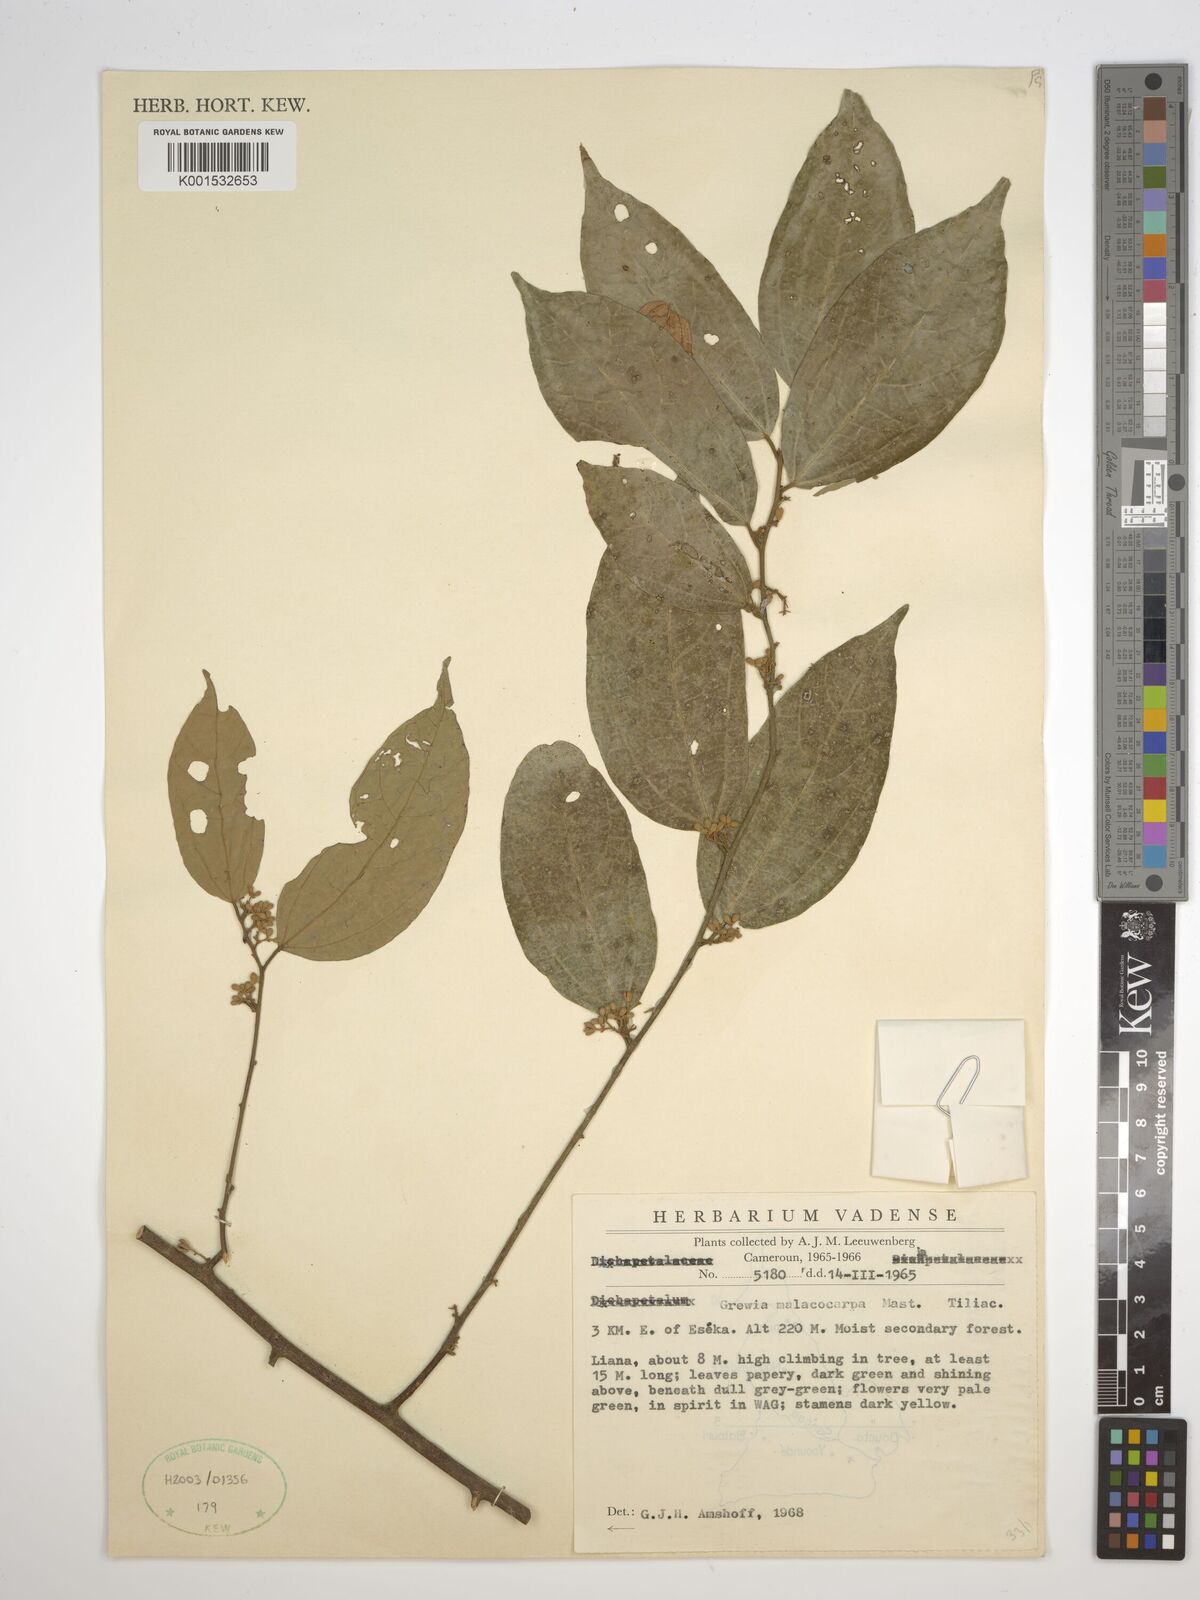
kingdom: Plantae
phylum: Tracheophyta
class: Magnoliopsida
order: Malvales
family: Malvaceae
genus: Microcos
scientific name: Microcos malacocarpa
